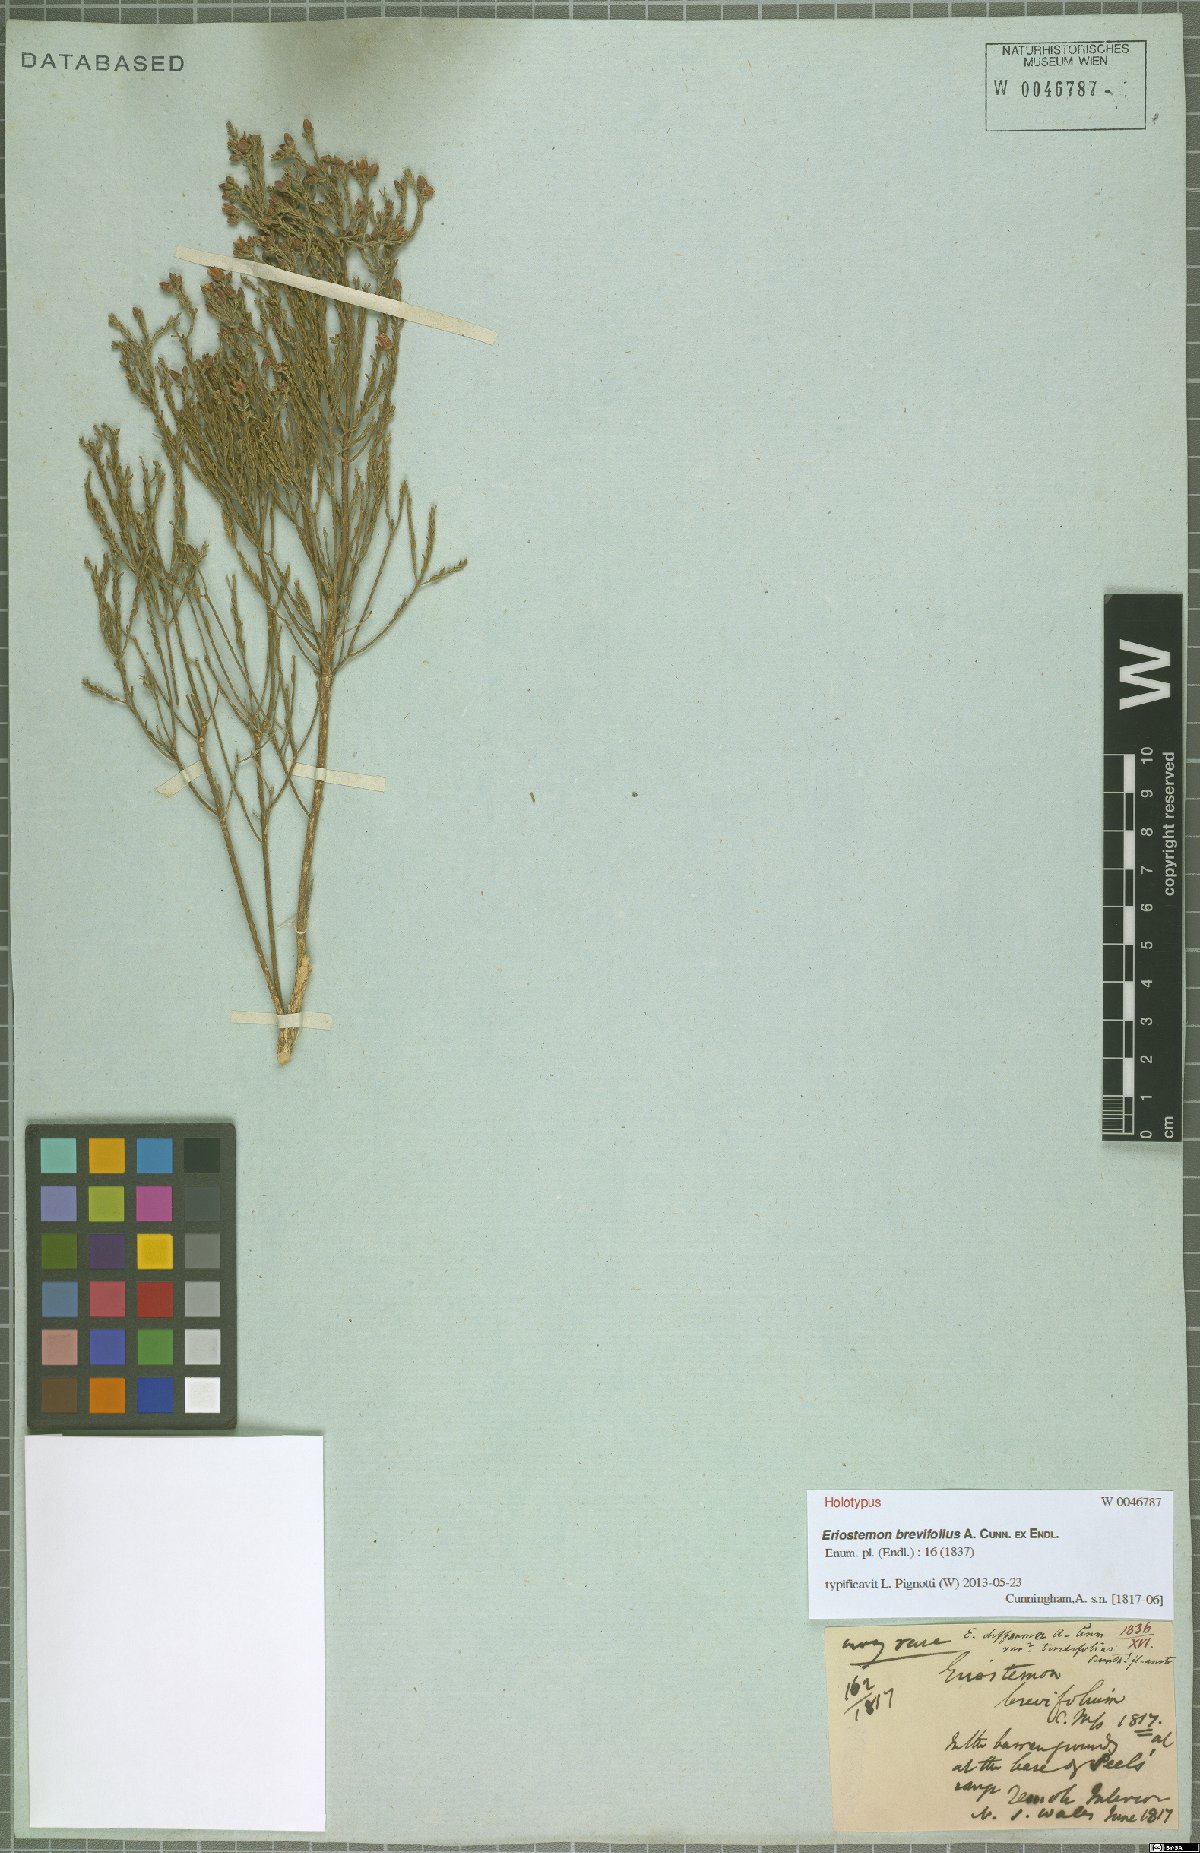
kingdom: Plantae
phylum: Tracheophyta
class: Magnoliopsida
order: Sapindales
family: Rutaceae
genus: Philotheca
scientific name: Philotheca brevifolia
